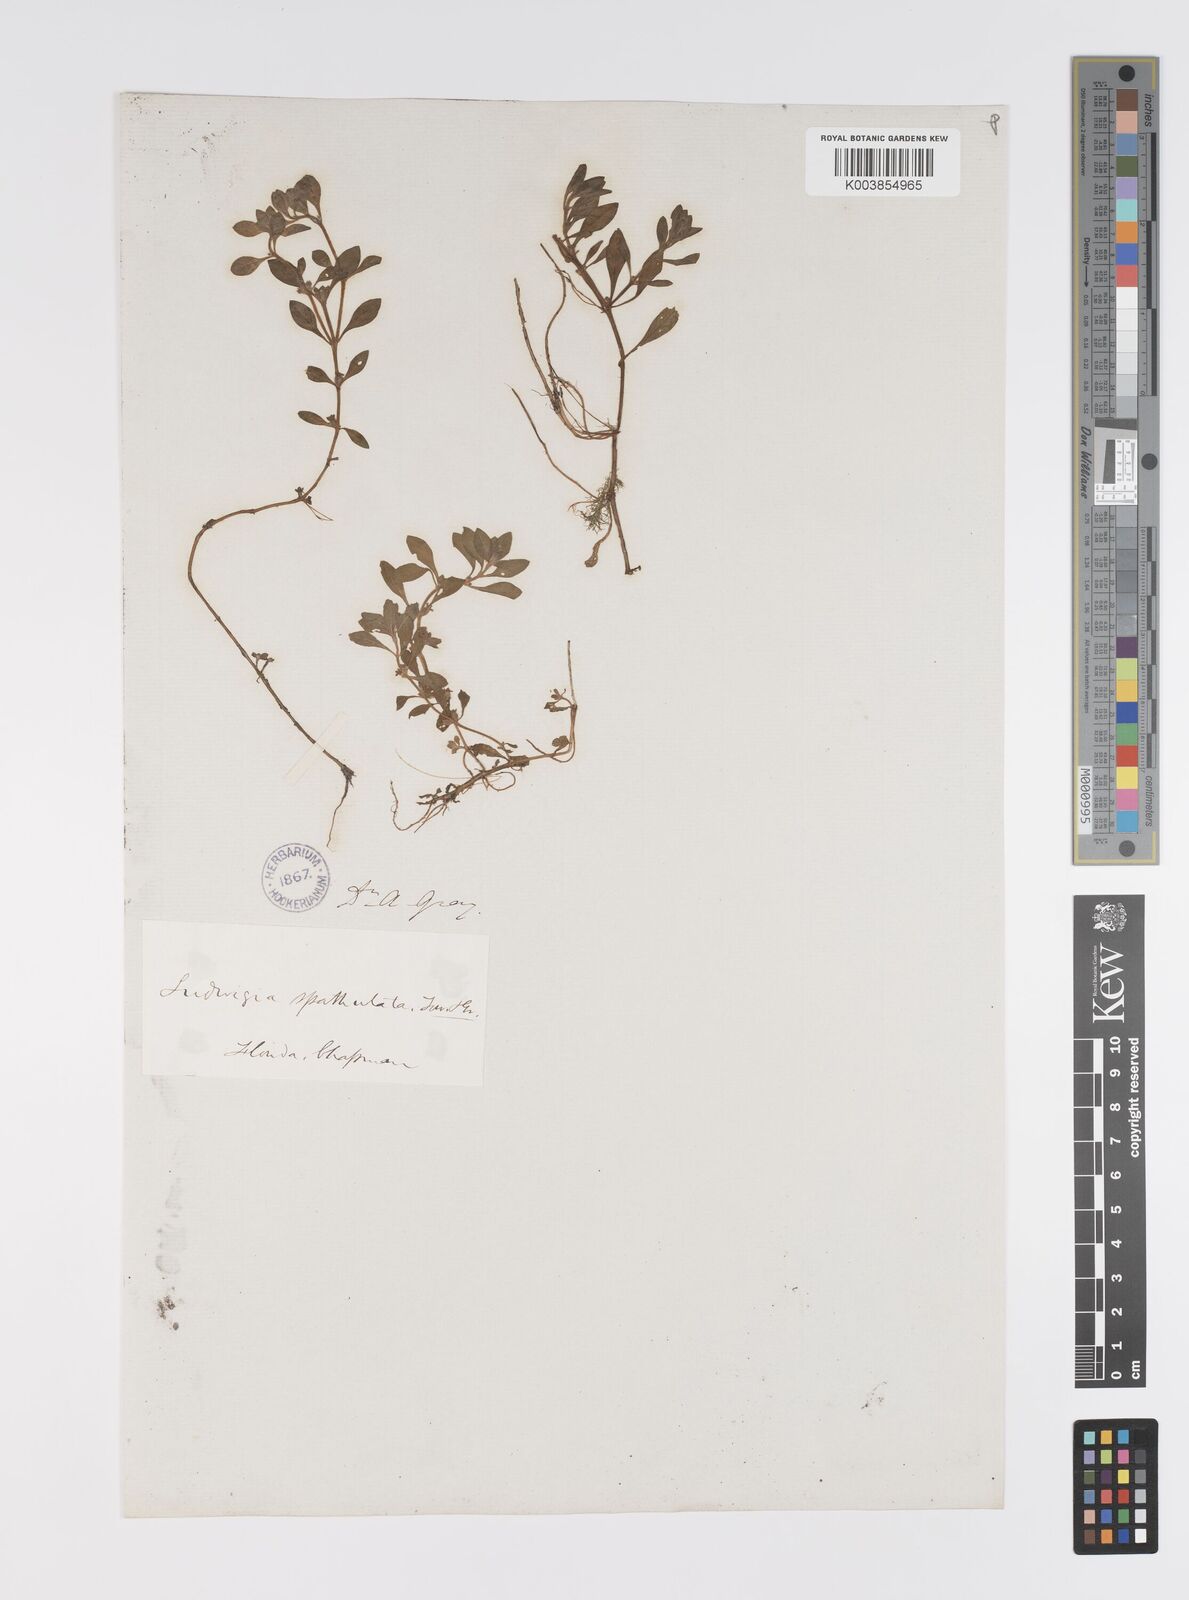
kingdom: Plantae
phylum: Tracheophyta
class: Magnoliopsida
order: Myrtales
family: Onagraceae
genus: Ludwigia
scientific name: Ludwigia spathulata
